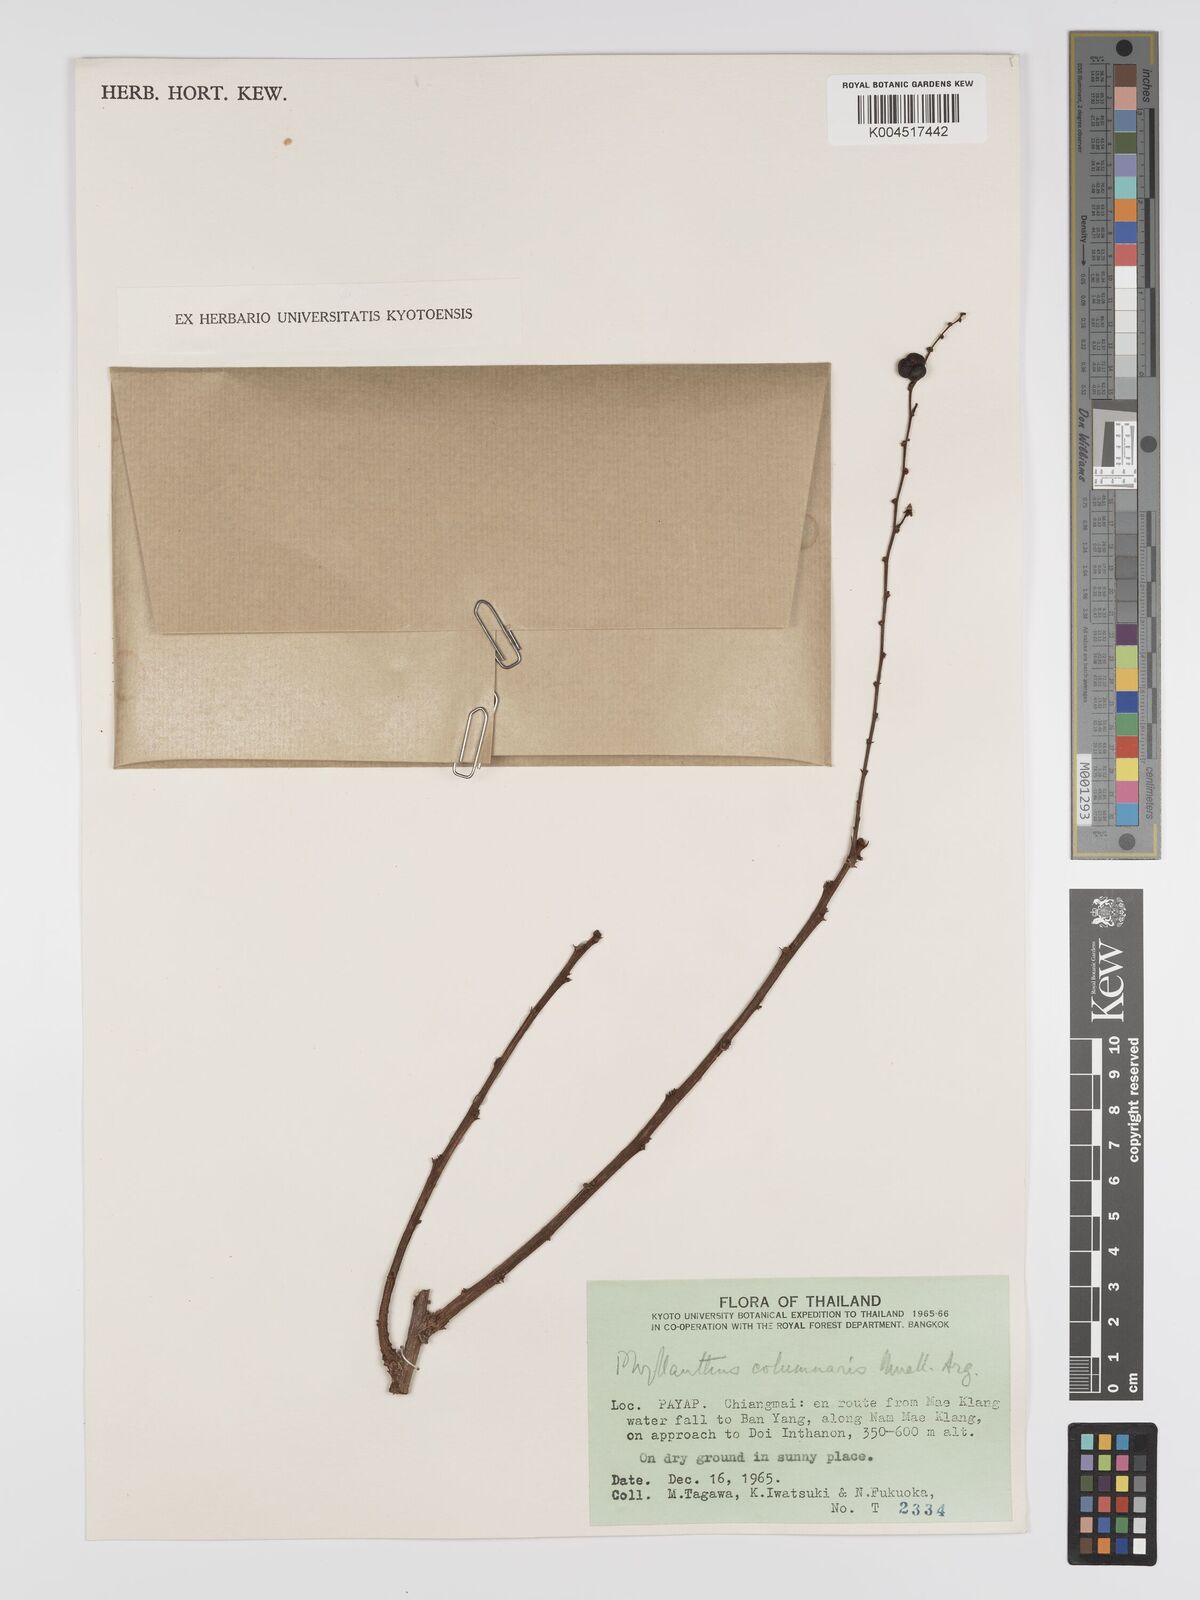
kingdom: Plantae
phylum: Tracheophyta
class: Magnoliopsida
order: Malpighiales
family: Phyllanthaceae
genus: Phyllanthus
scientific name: Phyllanthus
